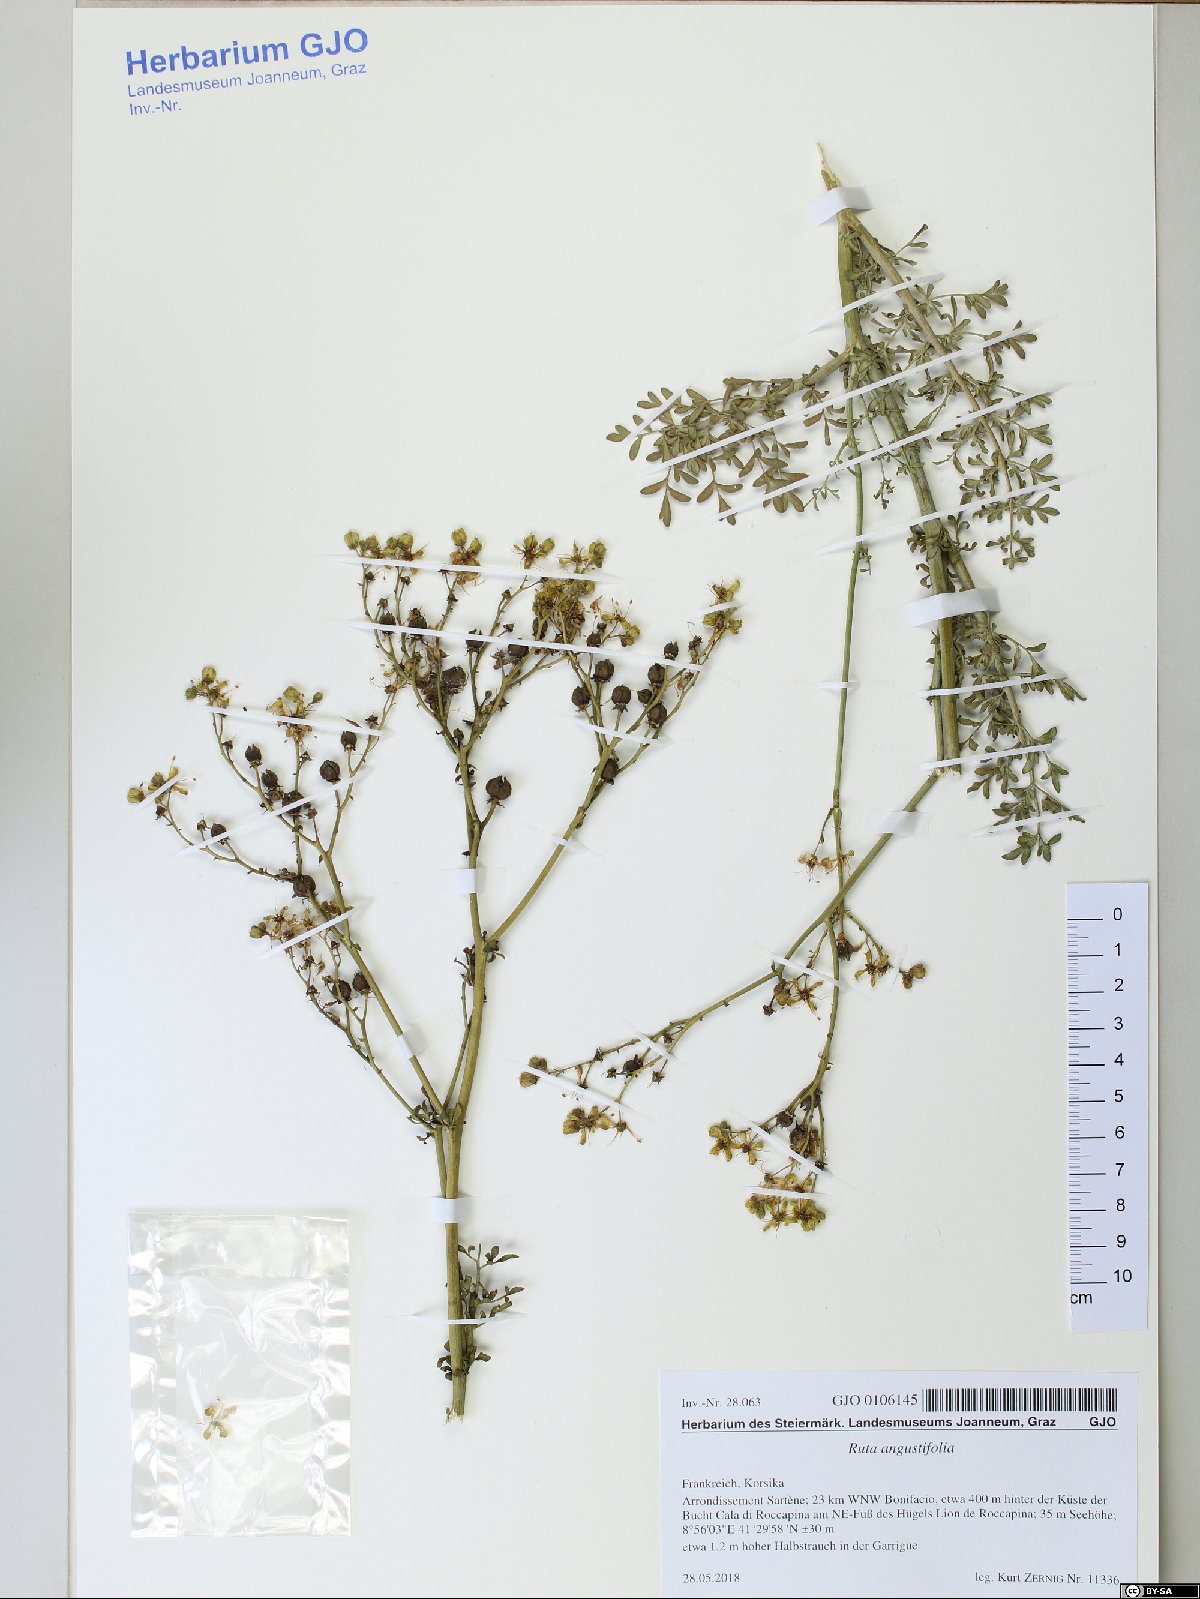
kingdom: Plantae
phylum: Tracheophyta
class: Magnoliopsida
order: Sapindales
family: Rutaceae
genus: Ruta
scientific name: Ruta angustifolia
